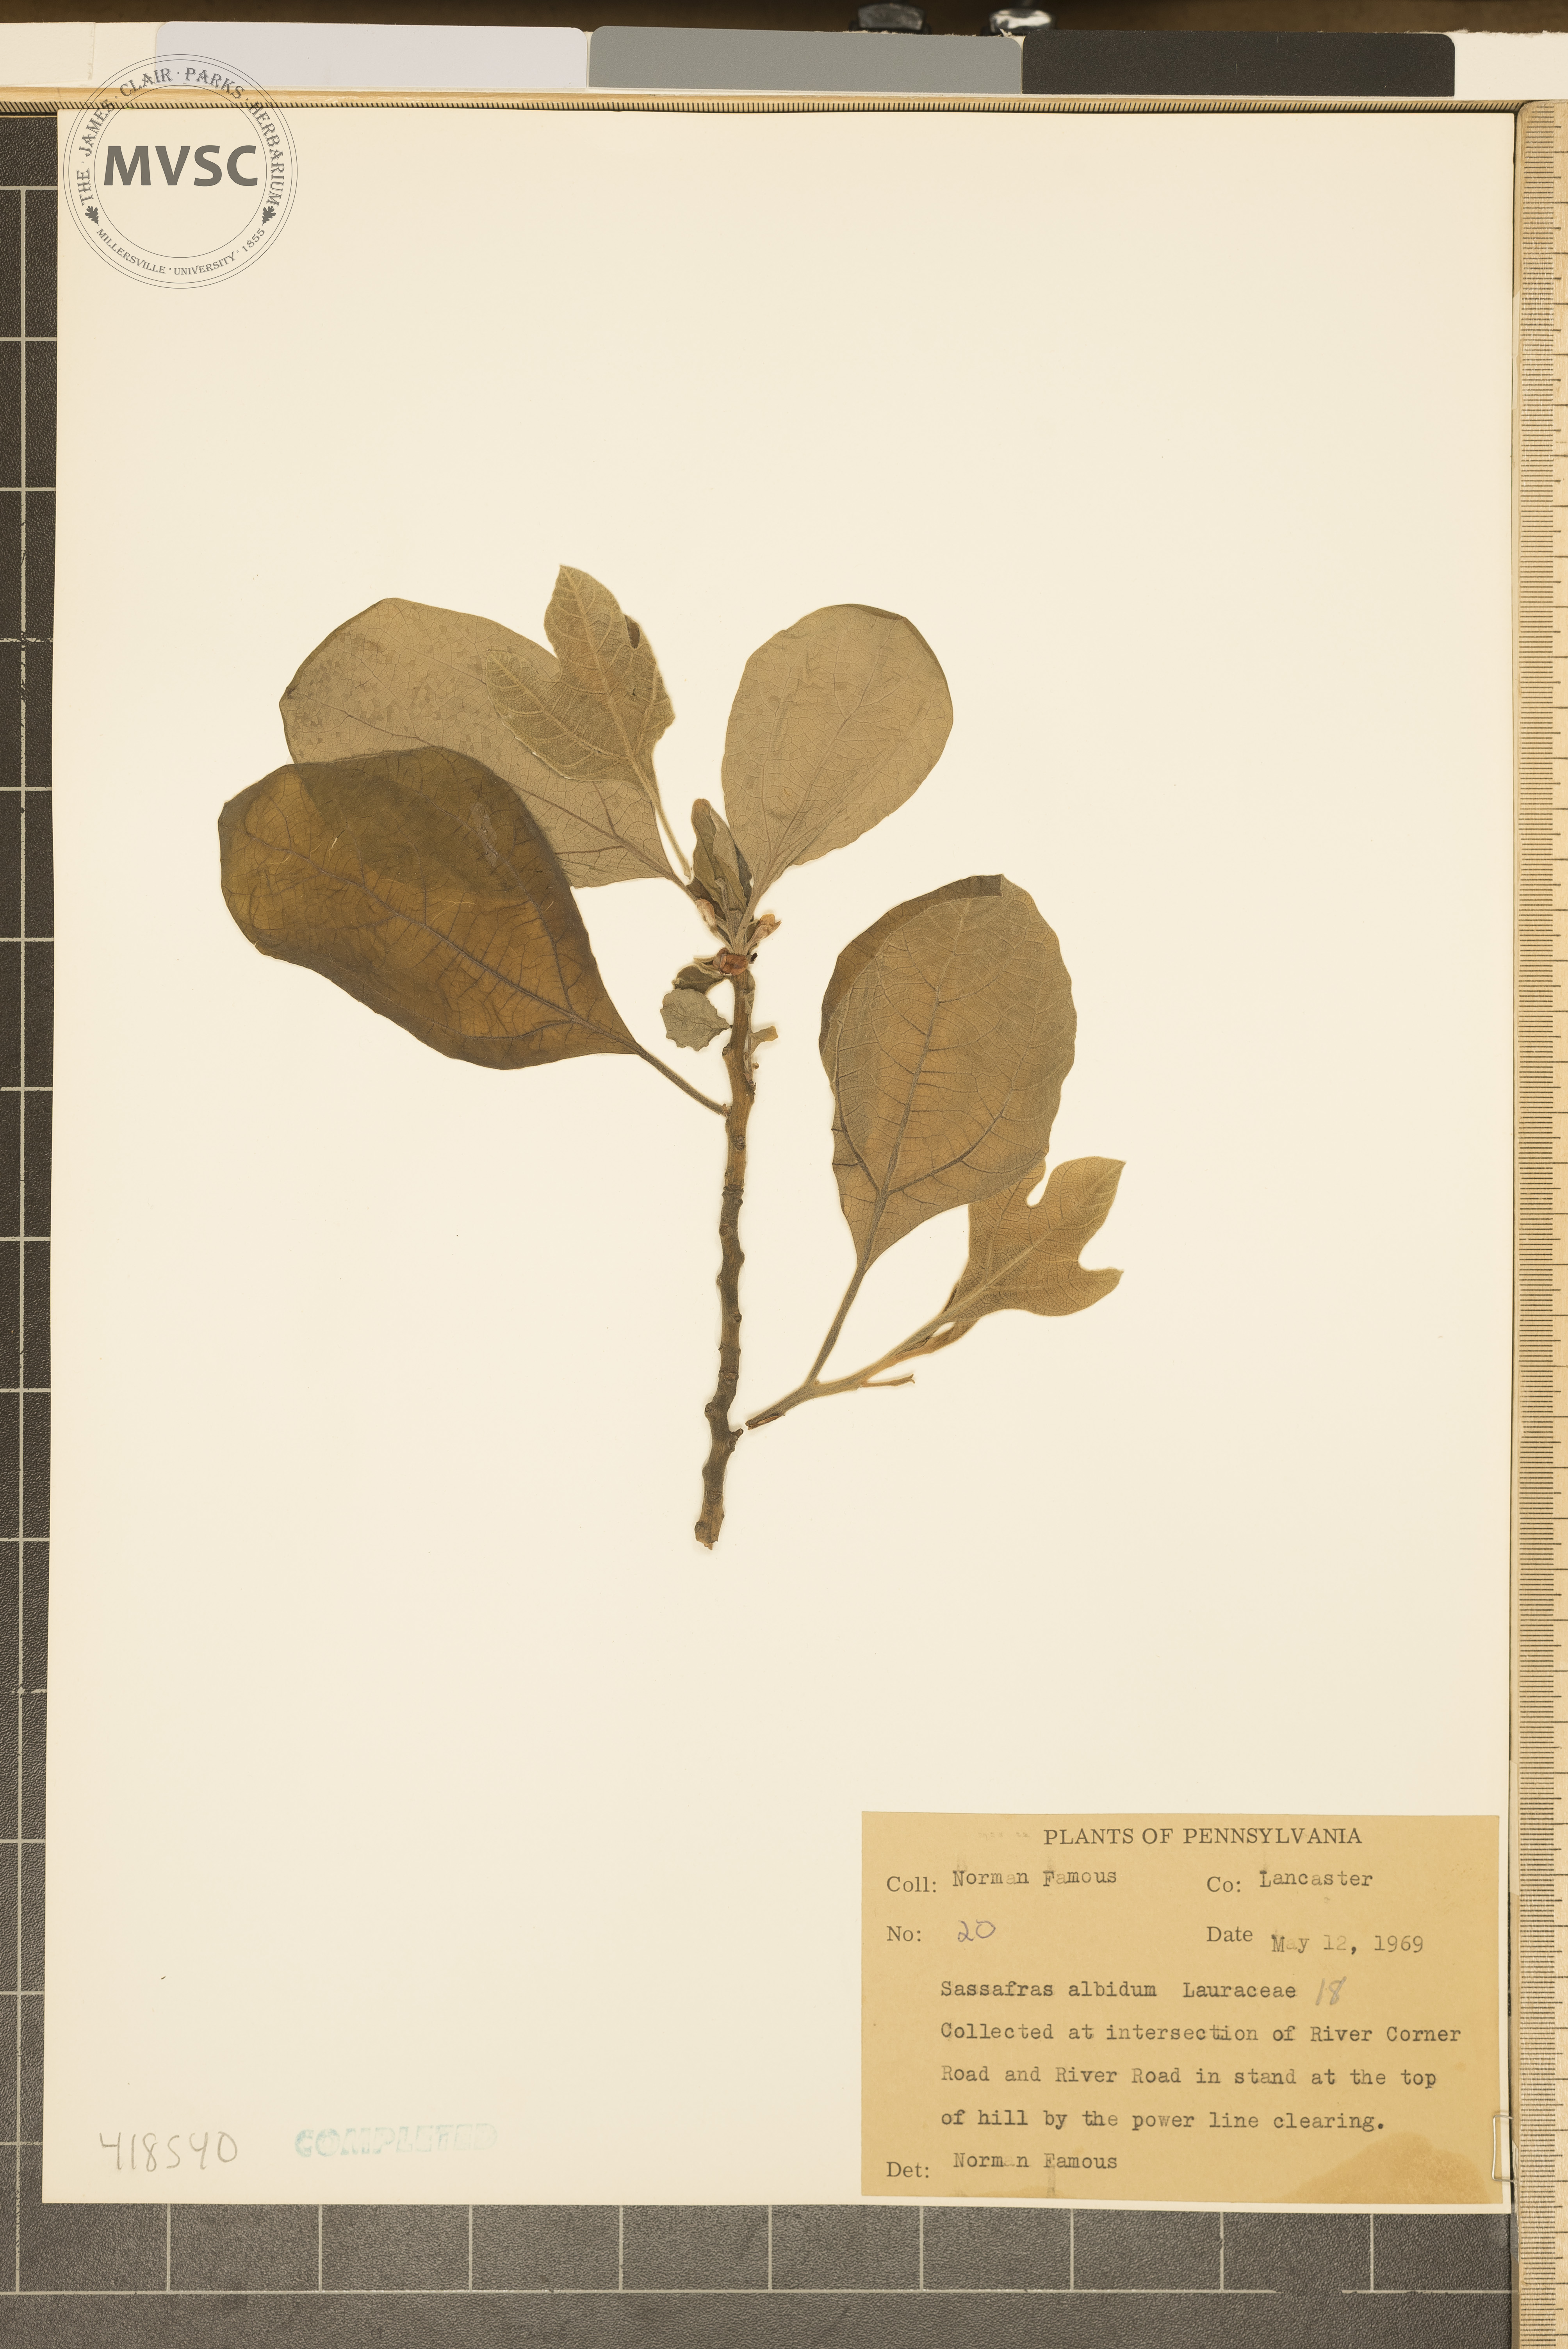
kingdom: Plantae
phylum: Tracheophyta
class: Magnoliopsida
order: Laurales
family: Lauraceae
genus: Sassafras
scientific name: Sassafras albidum
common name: Sassafras
